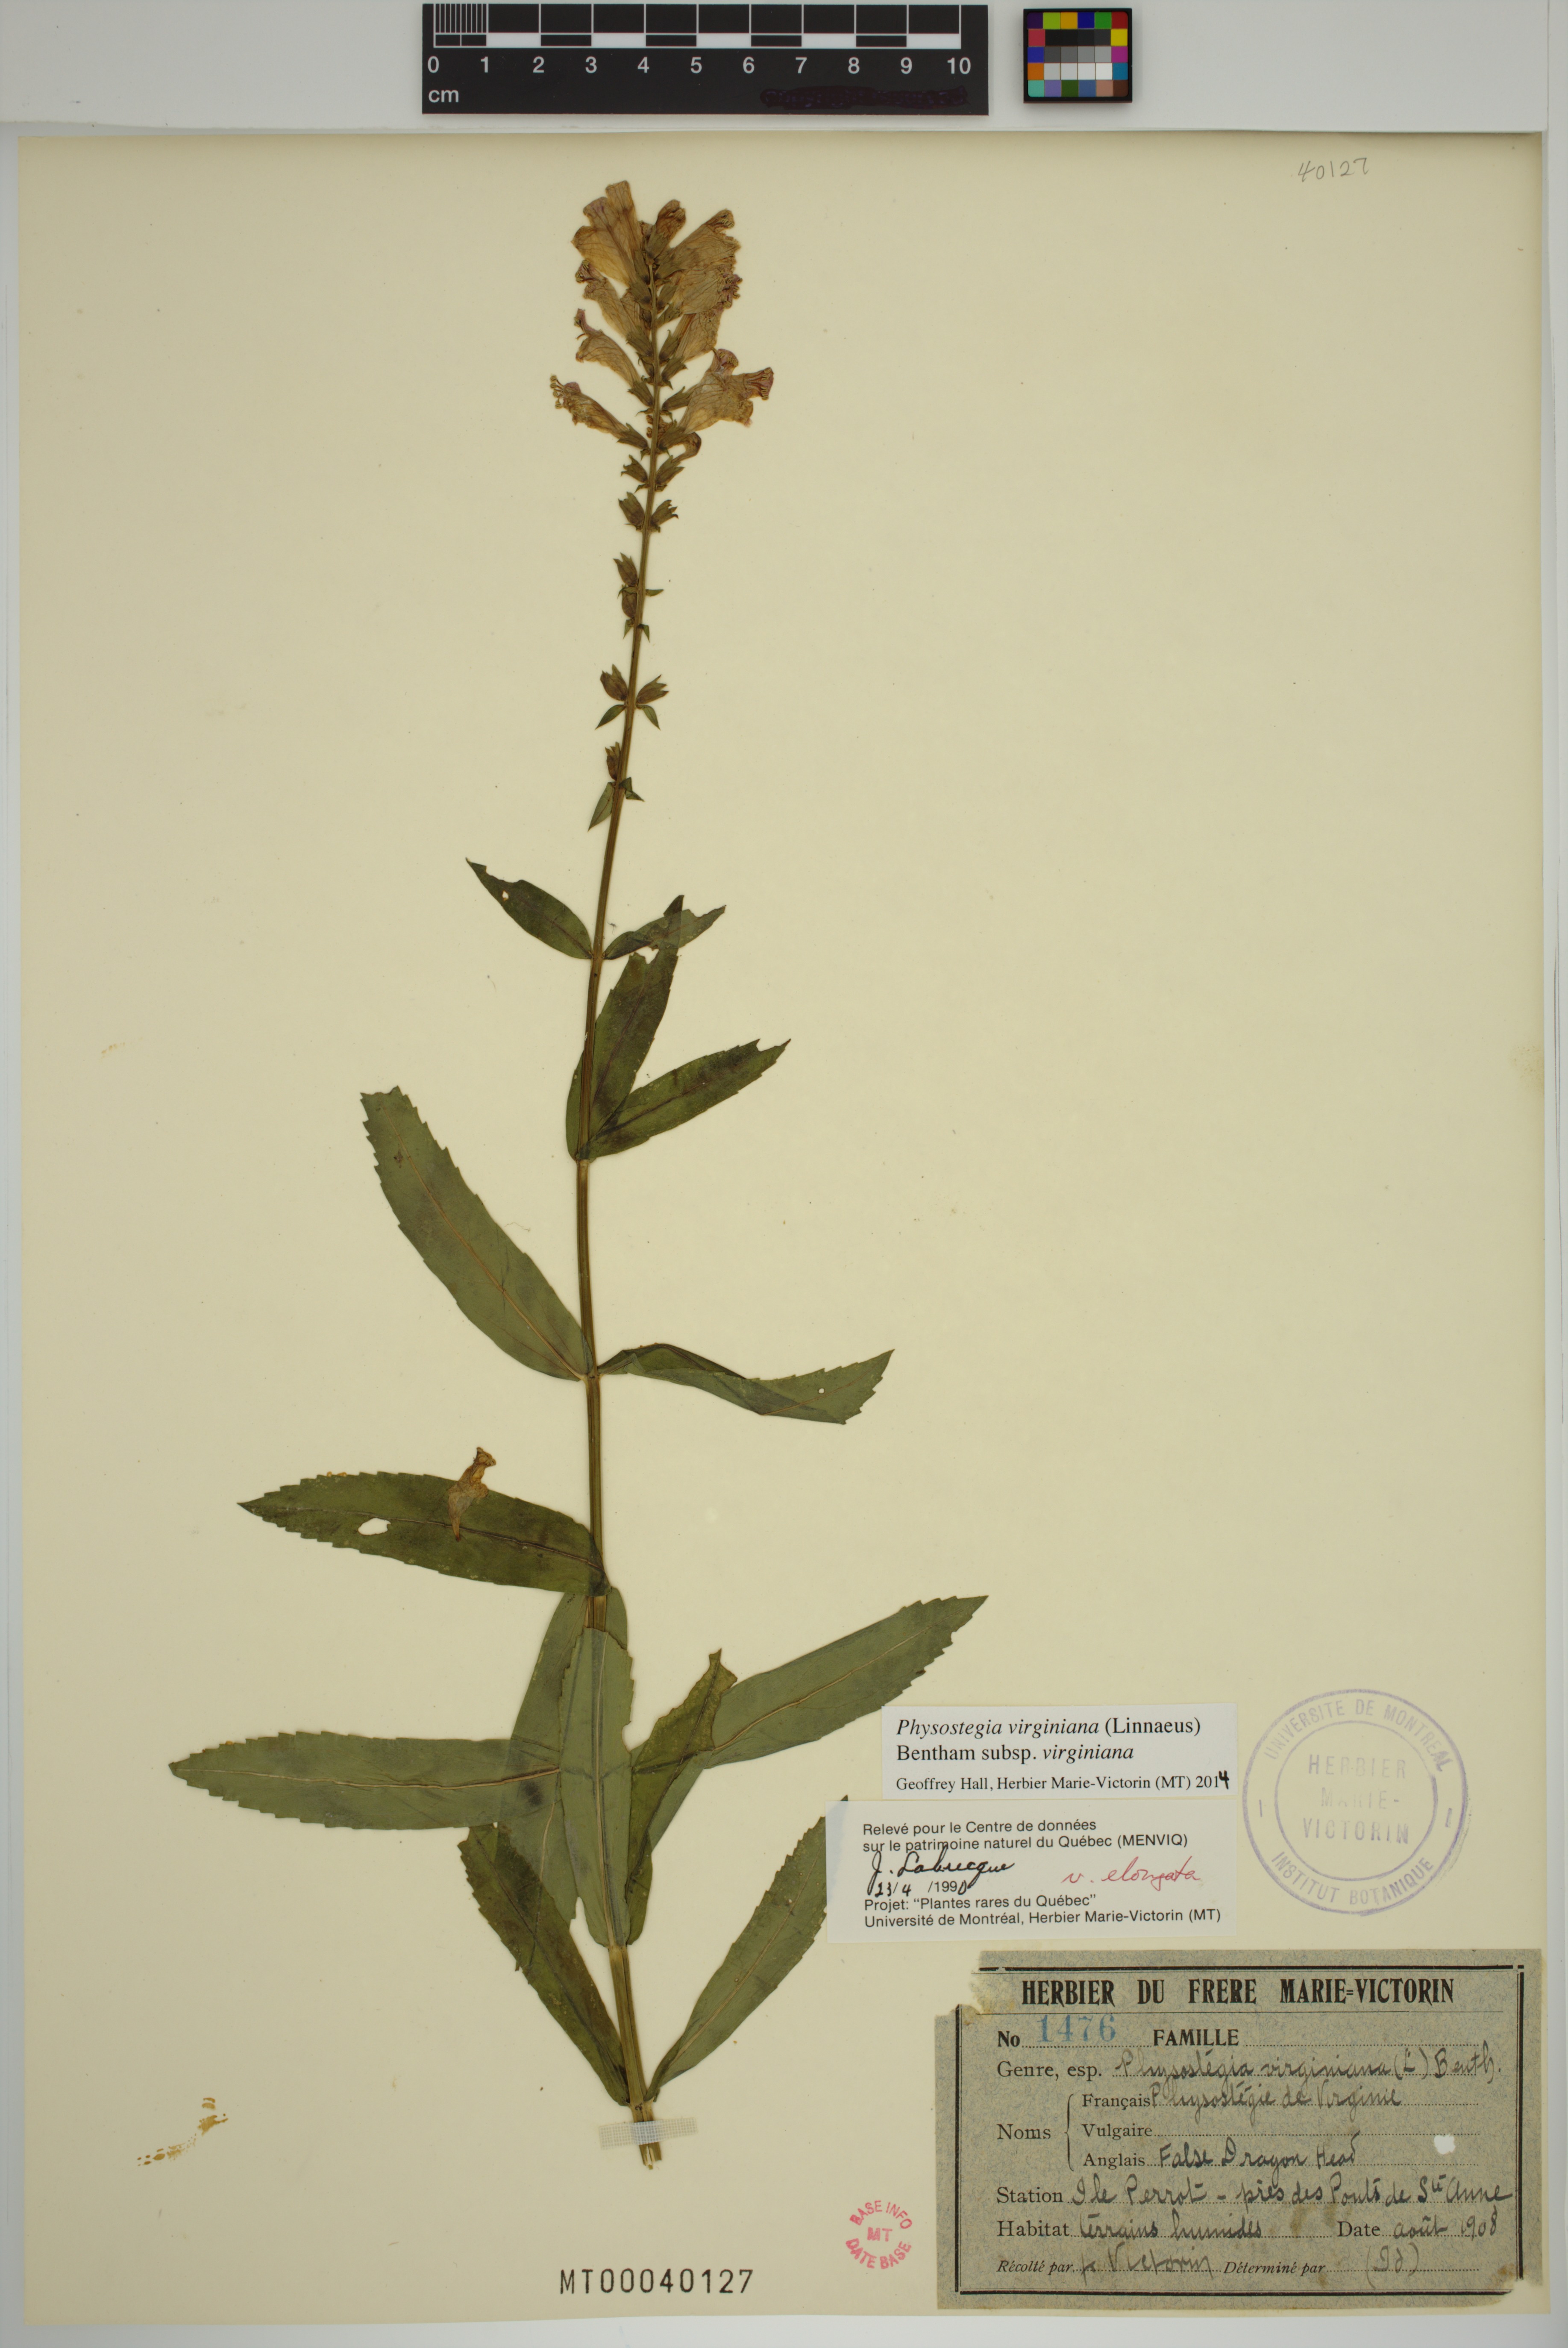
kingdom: Plantae
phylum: Tracheophyta
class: Magnoliopsida
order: Lamiales
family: Lamiaceae
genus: Physostegia
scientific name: Physostegia virginiana
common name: Obedient-plant
